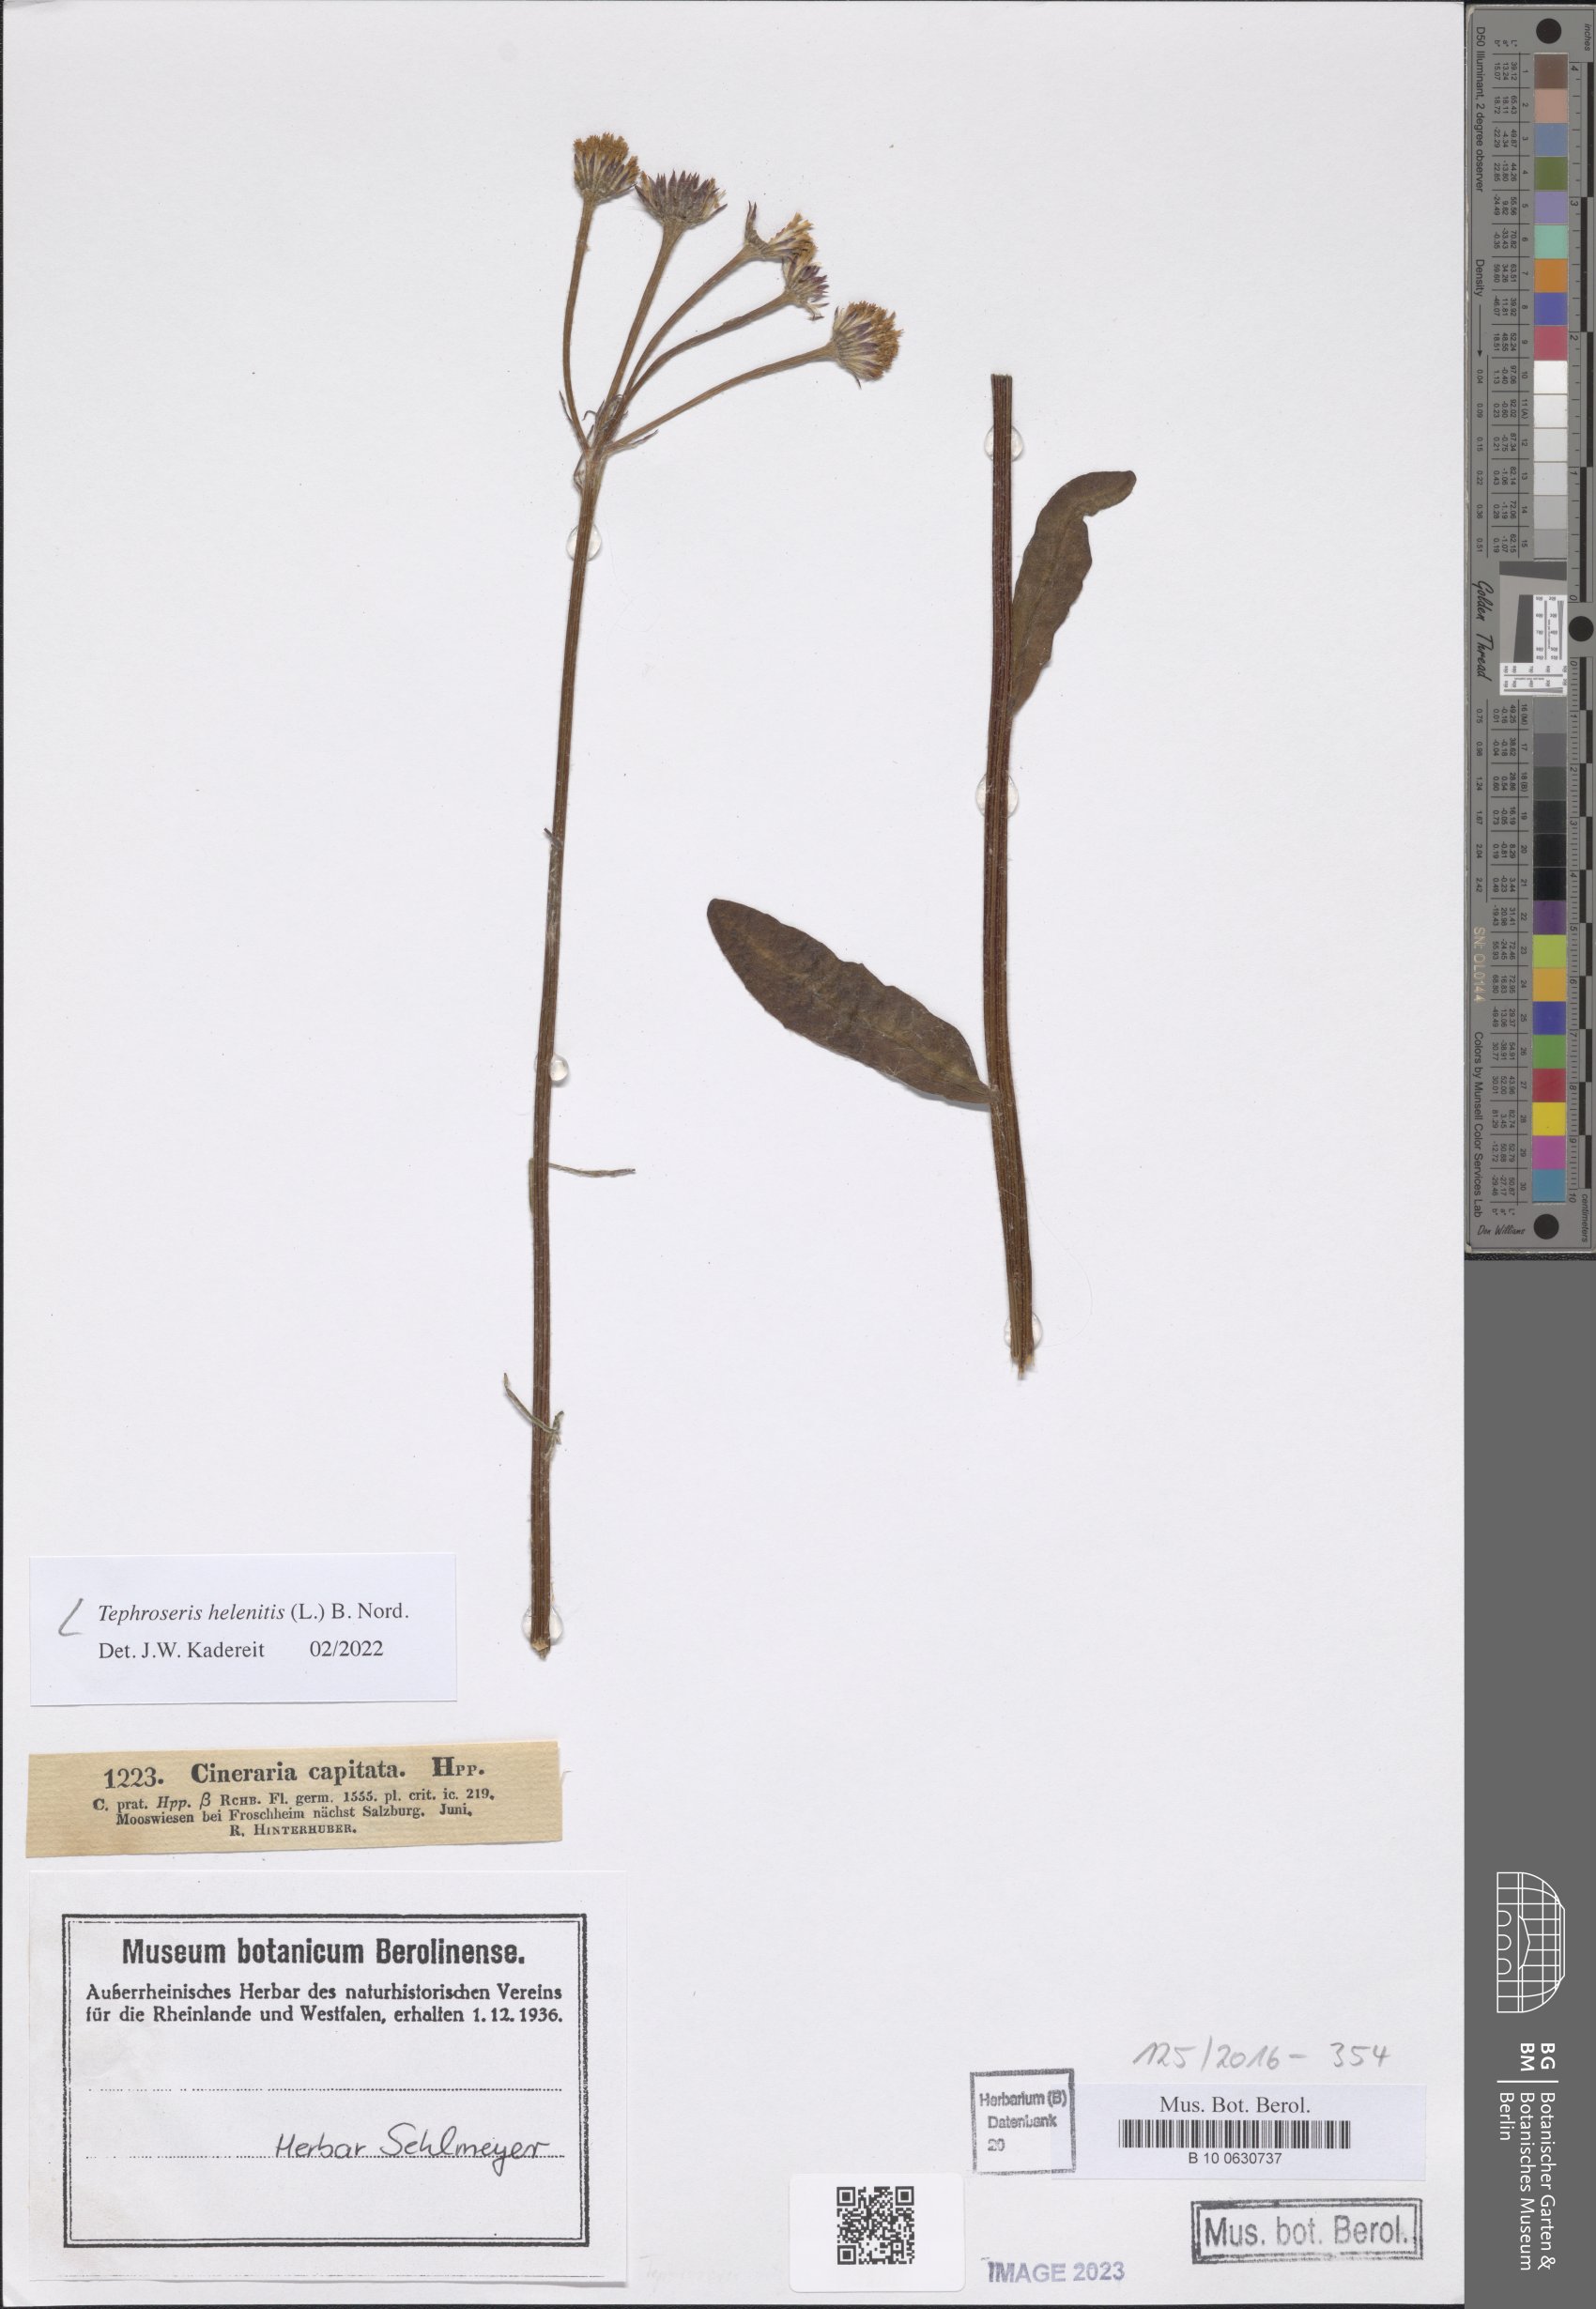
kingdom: Plantae
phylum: Tracheophyta
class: Magnoliopsida
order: Asterales
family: Asteraceae
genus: Tephroseris
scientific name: Tephroseris helenitis
